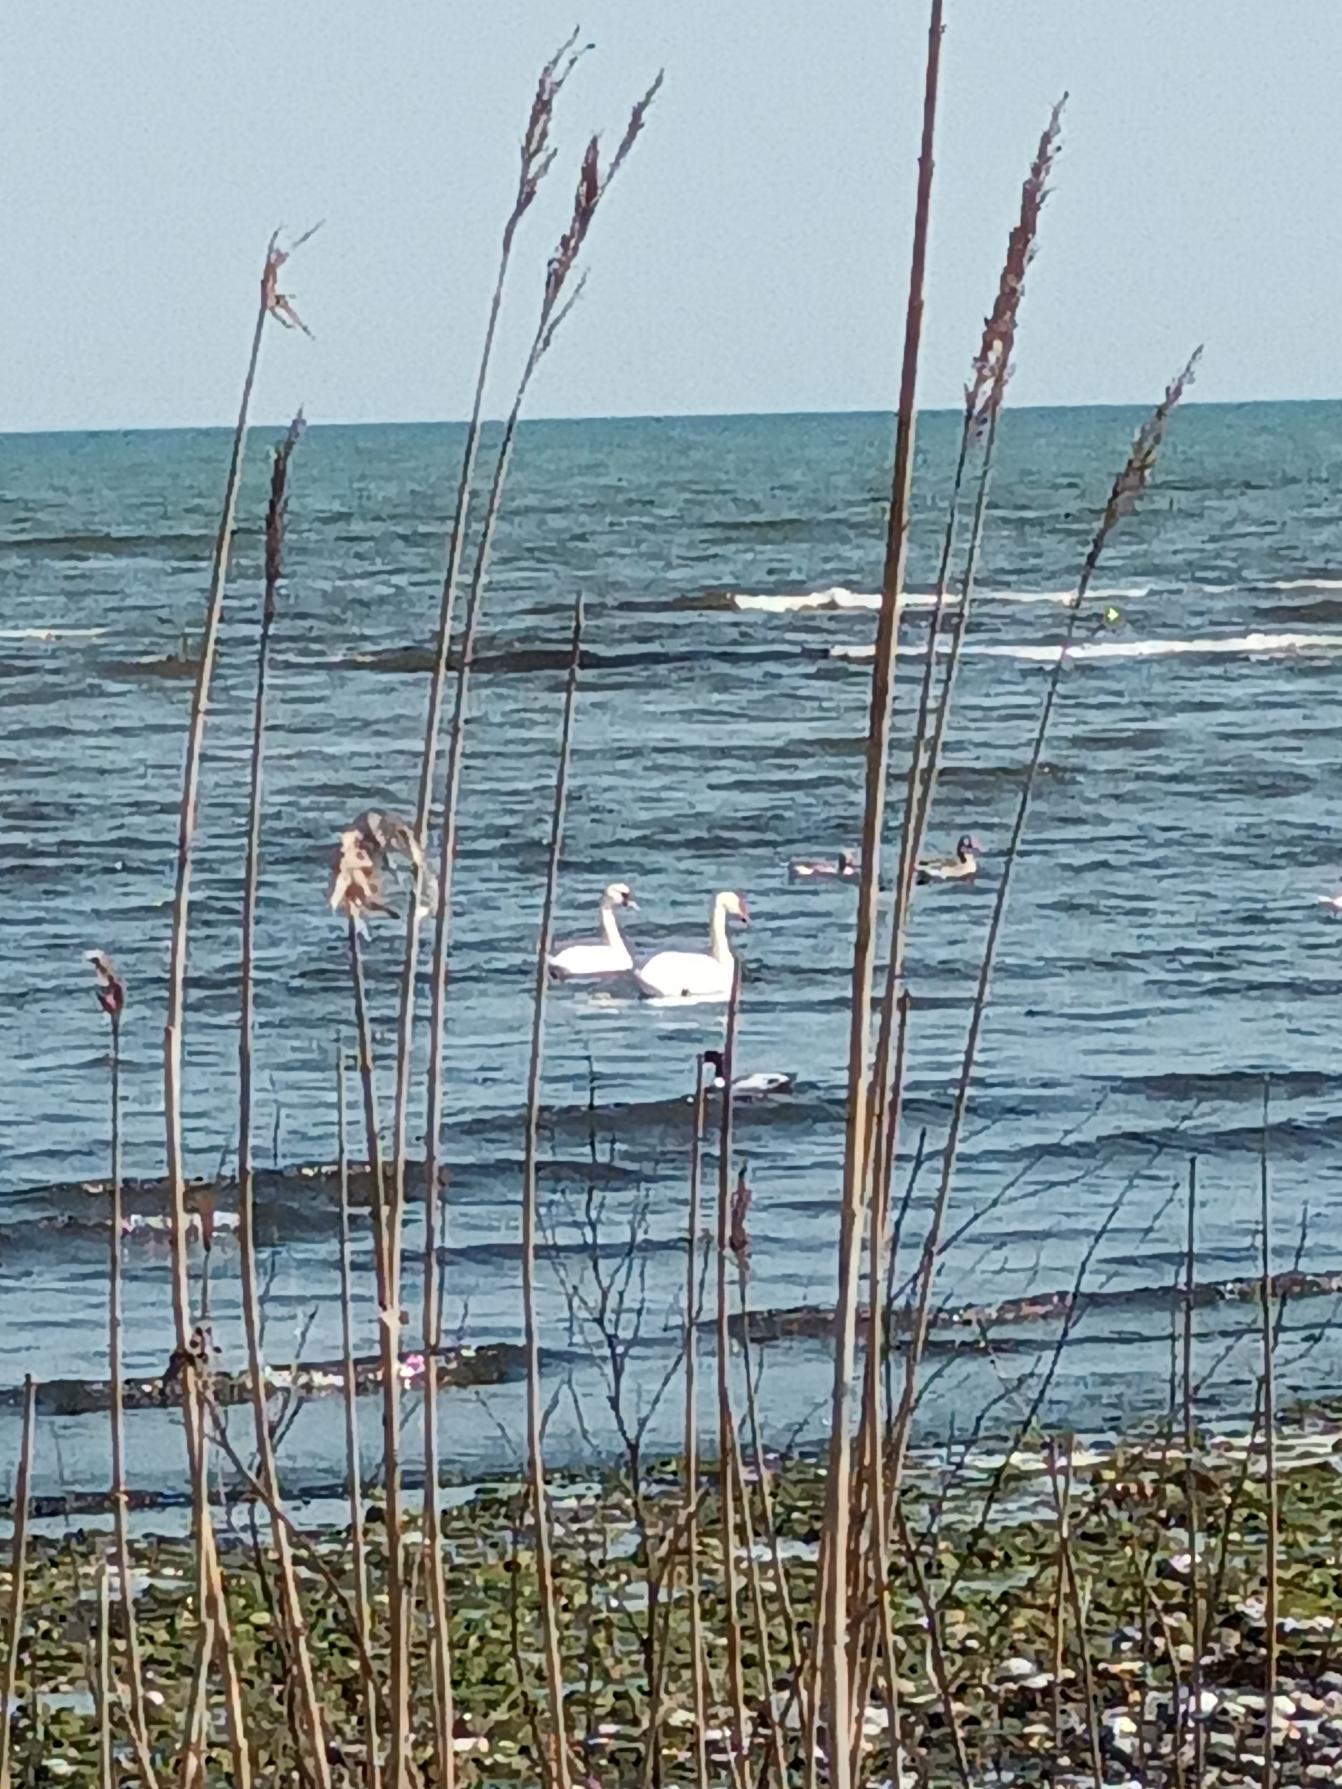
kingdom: Animalia
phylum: Chordata
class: Aves
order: Anseriformes
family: Anatidae
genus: Tadorna
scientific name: Tadorna tadorna
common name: Gravand
